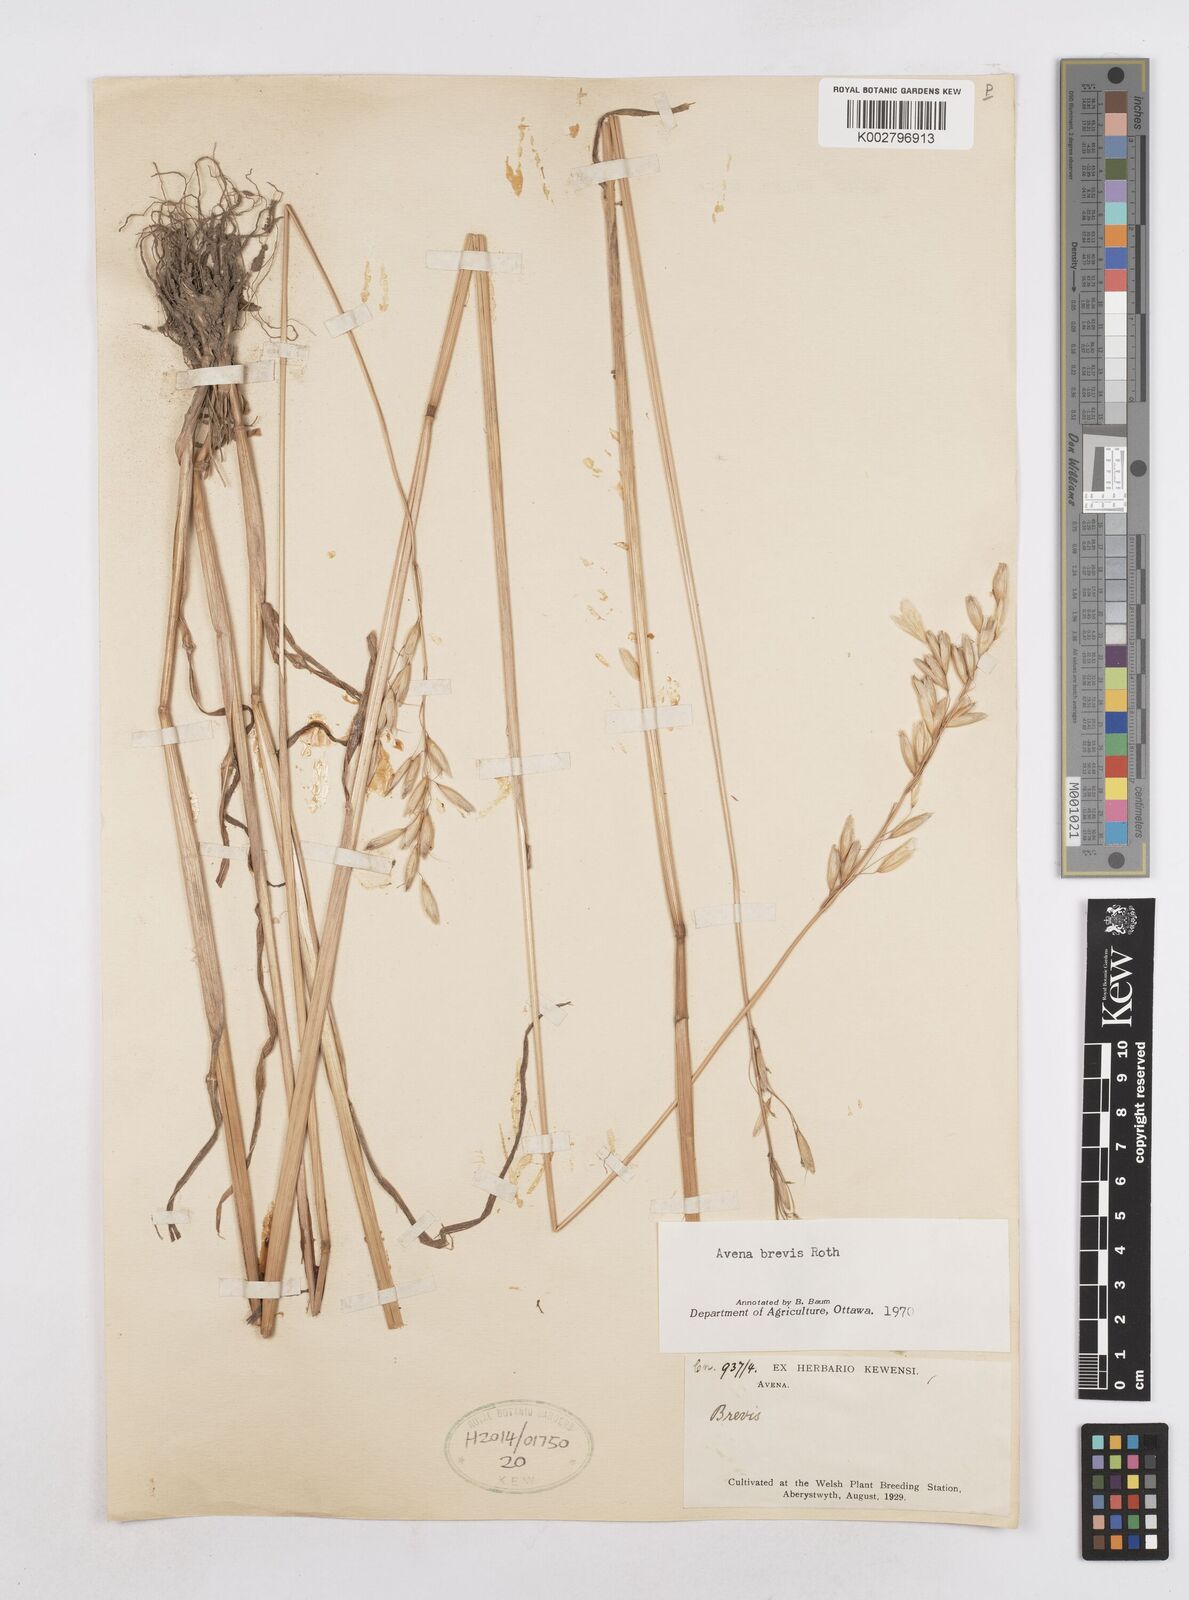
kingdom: Plantae
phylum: Tracheophyta
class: Liliopsida
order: Poales
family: Poaceae
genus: Avena
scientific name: Avena brevis
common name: Short oat
